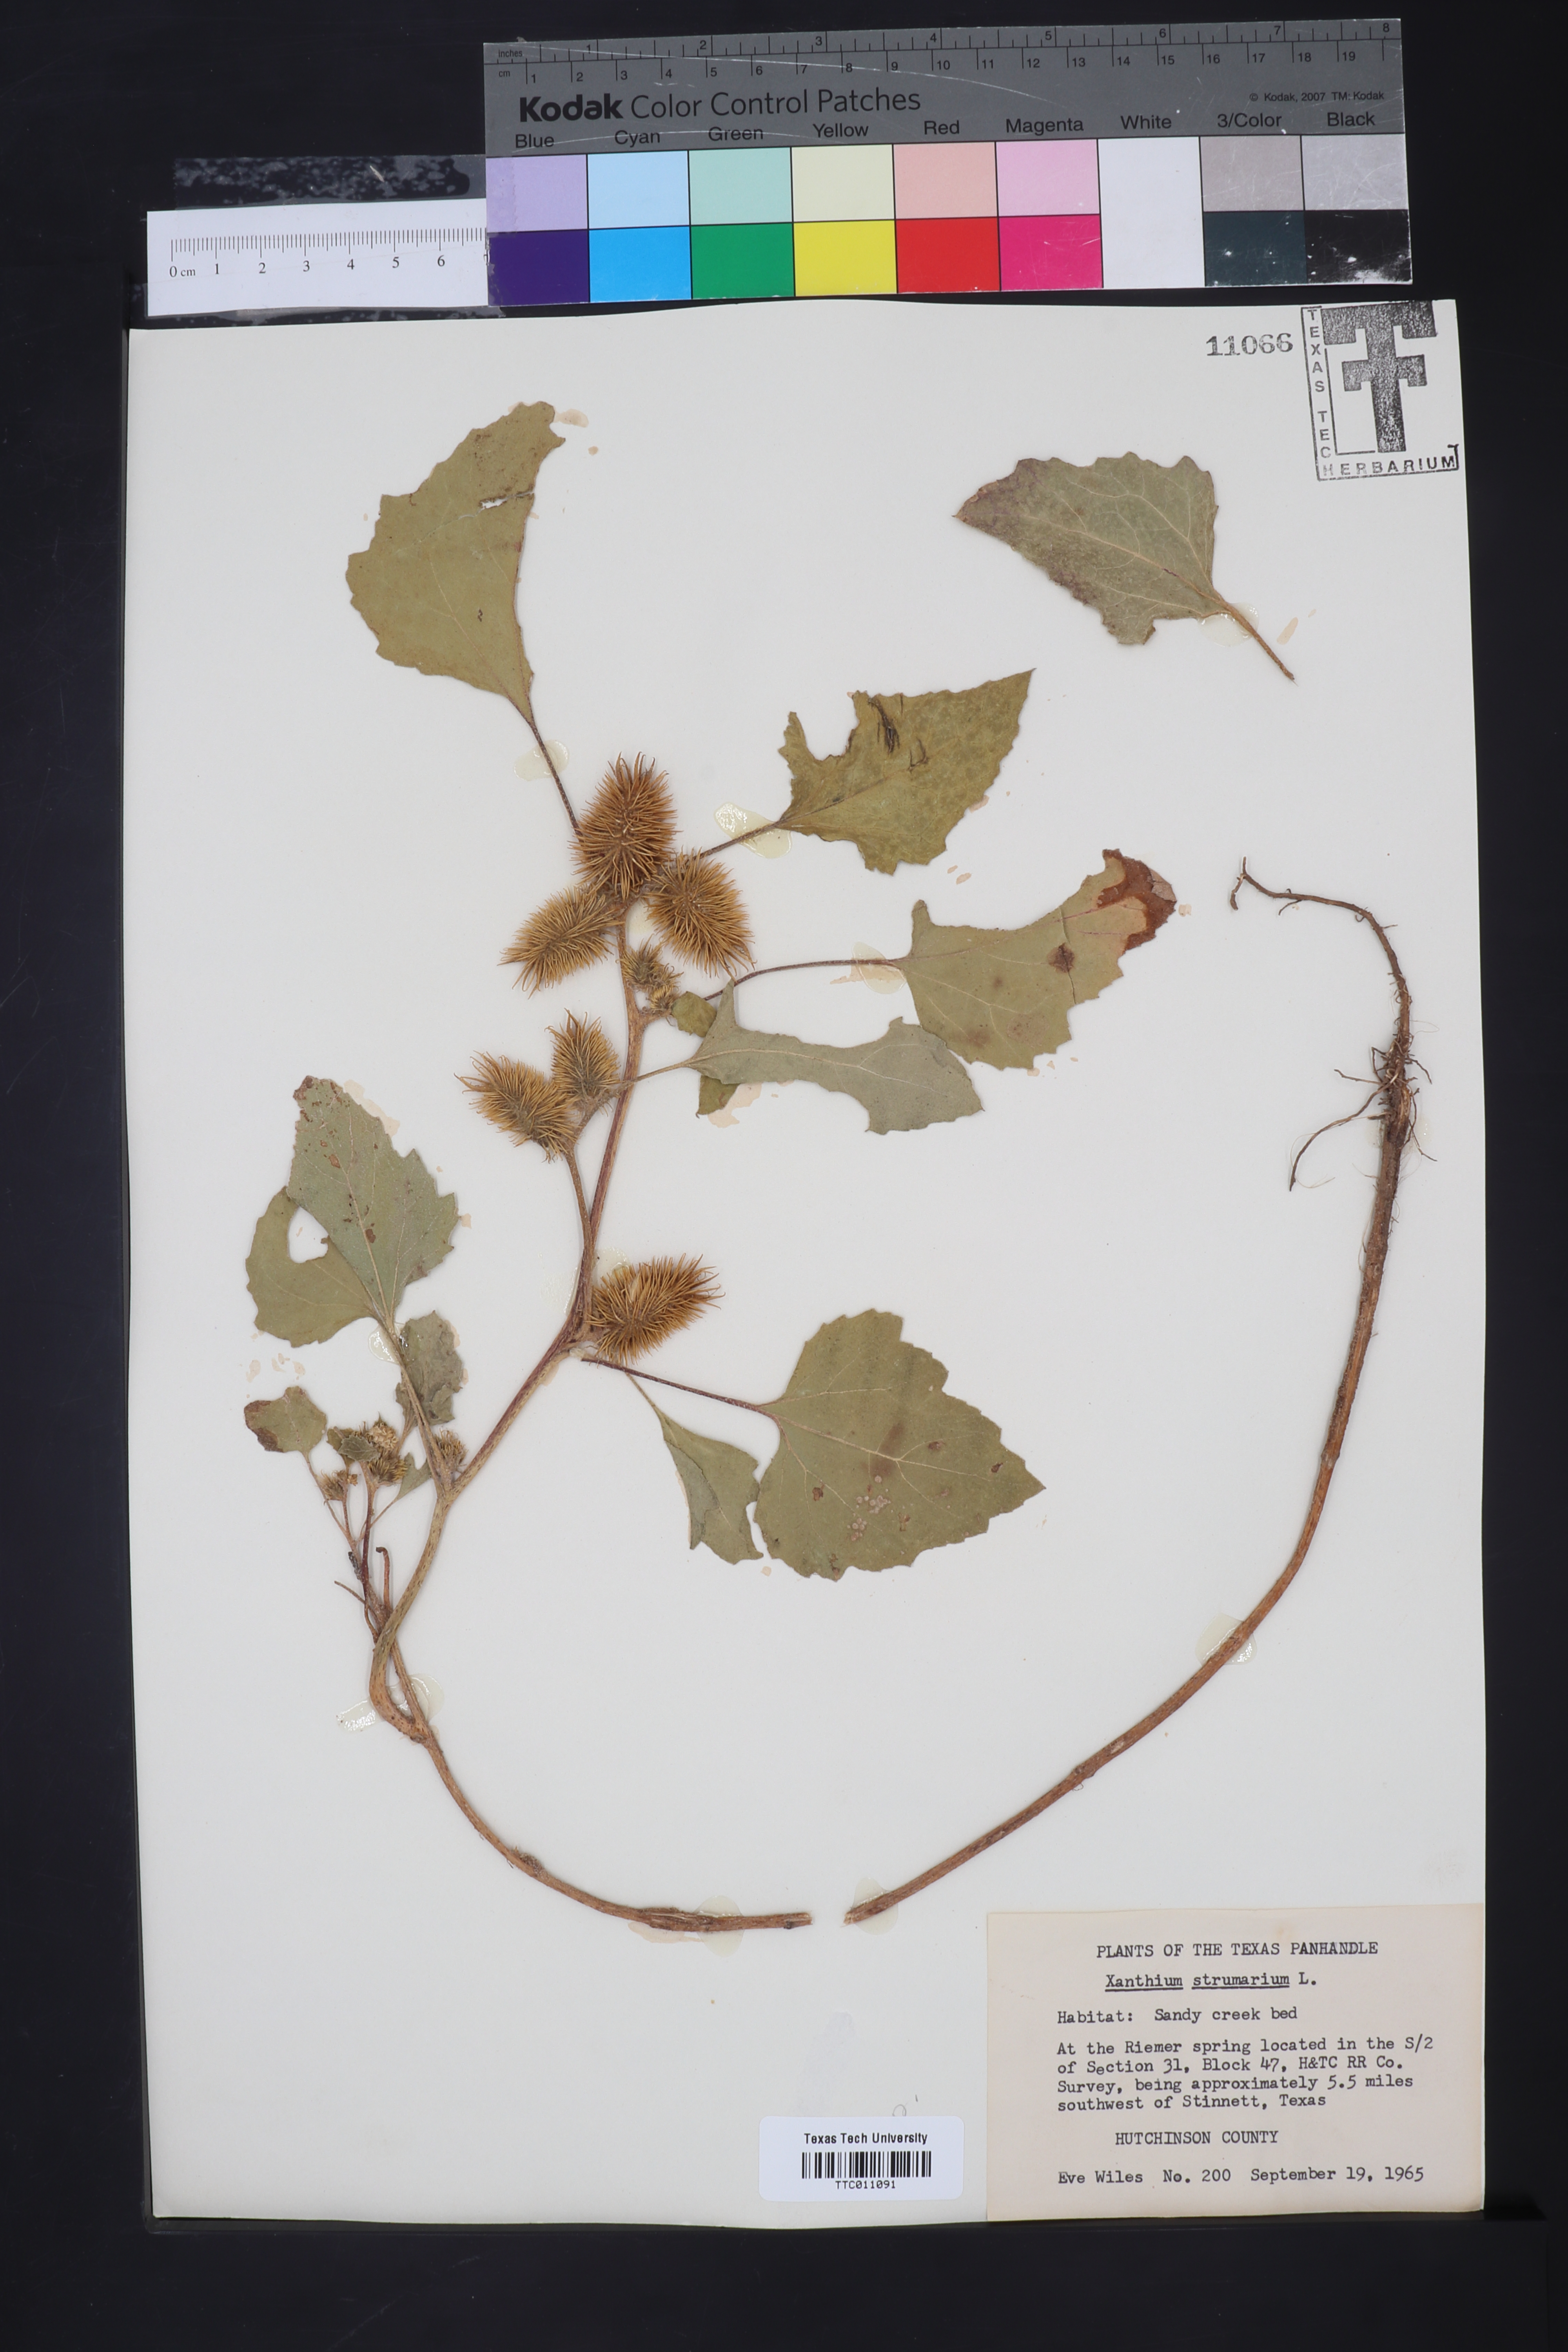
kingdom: Plantae
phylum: Tracheophyta
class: Magnoliopsida
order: Asterales
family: Asteraceae
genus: Xanthium
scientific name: Xanthium strumarium
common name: Rough cocklebur
